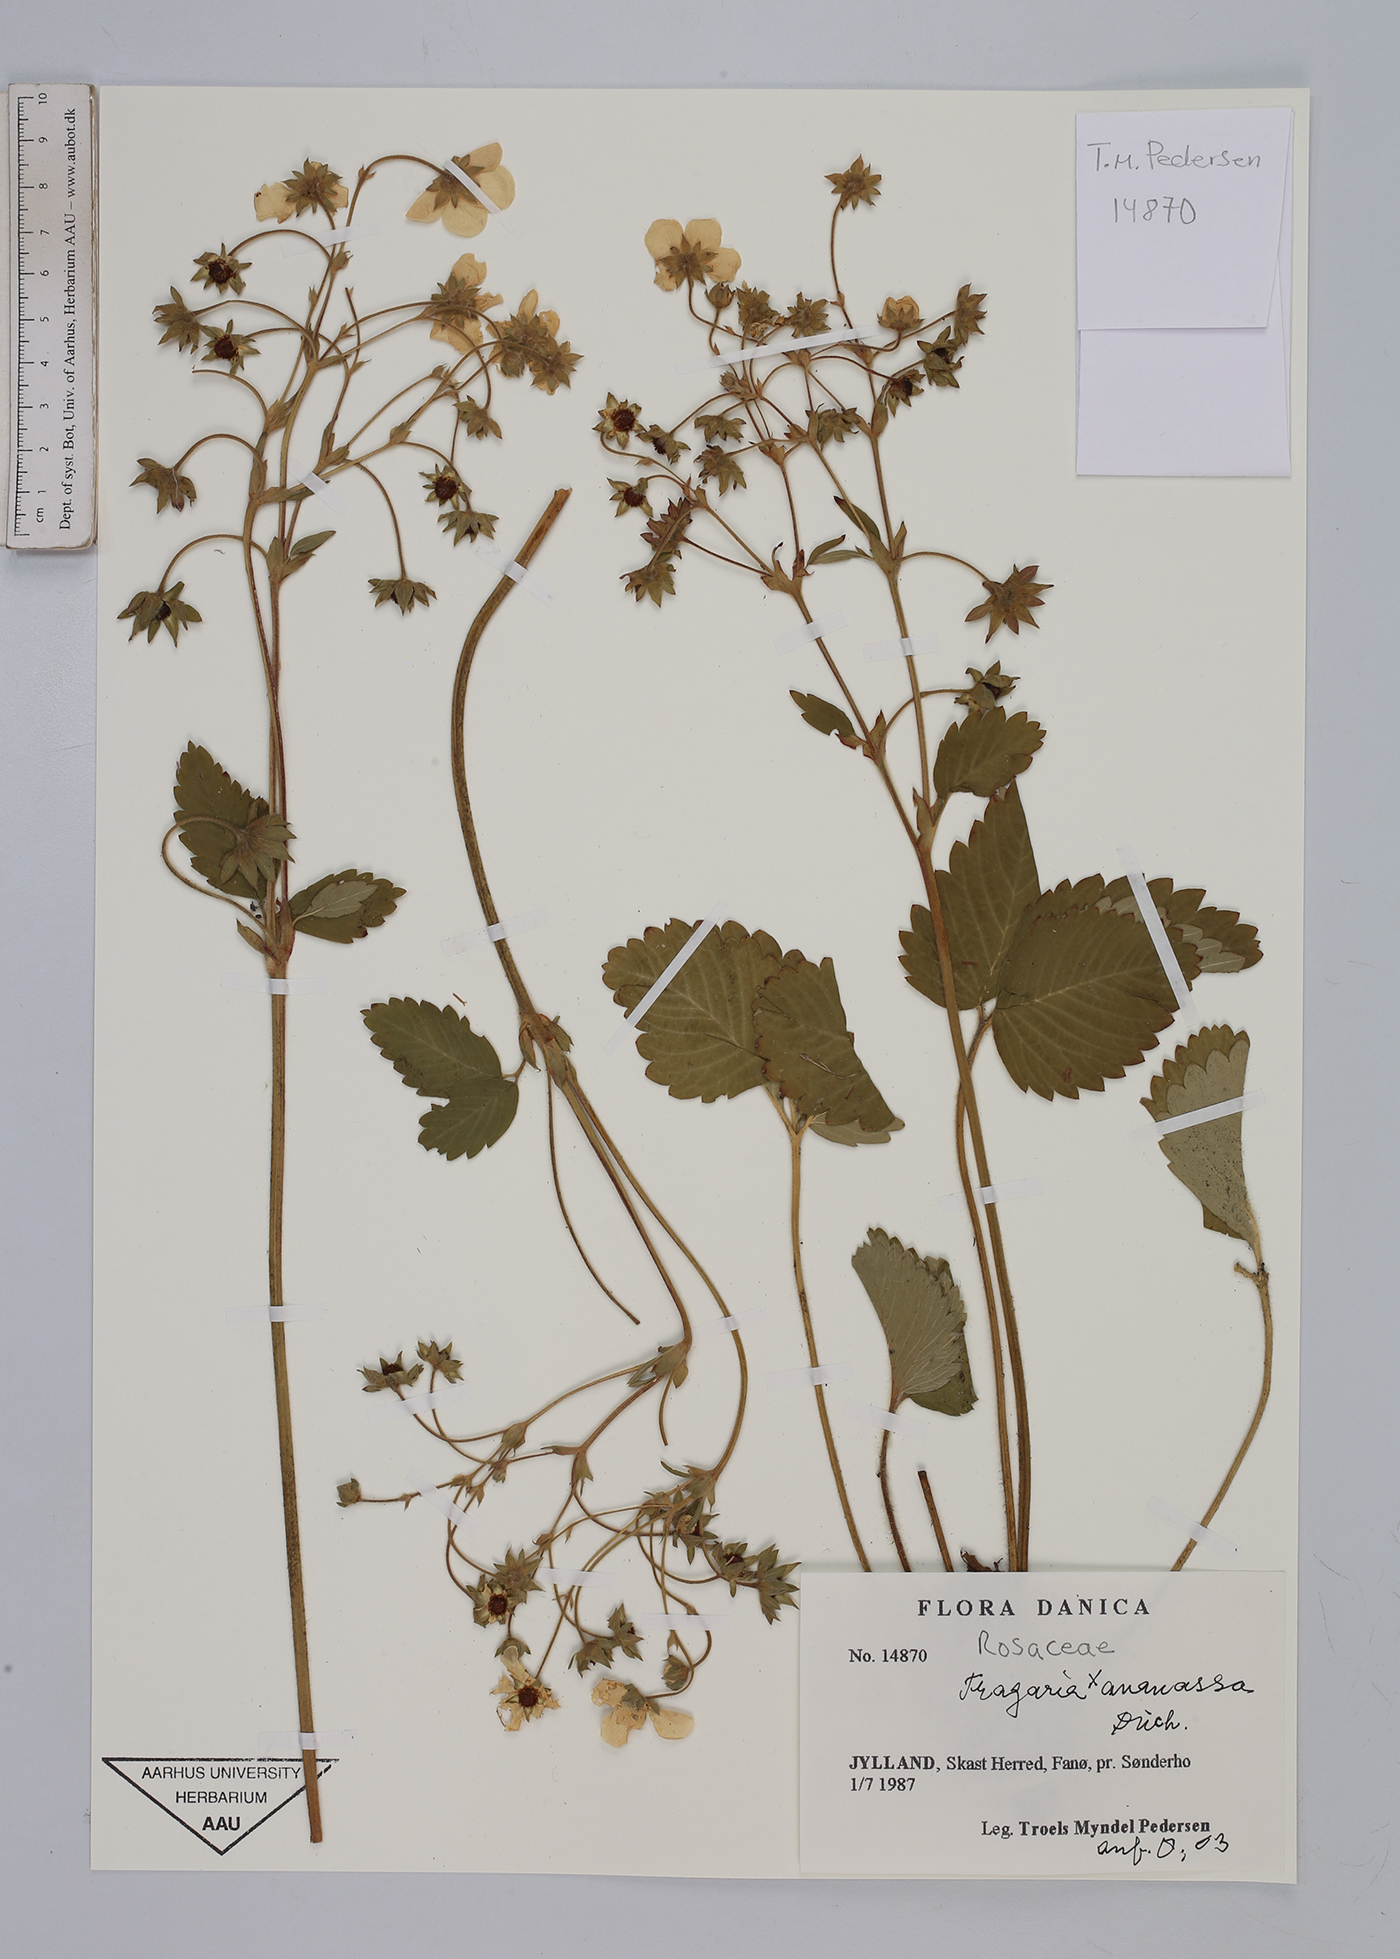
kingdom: Plantae
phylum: Tracheophyta
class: Magnoliopsida
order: Rosales
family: Rosaceae
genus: Fragaria
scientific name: Fragaria ananassa
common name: Garden strawberry
